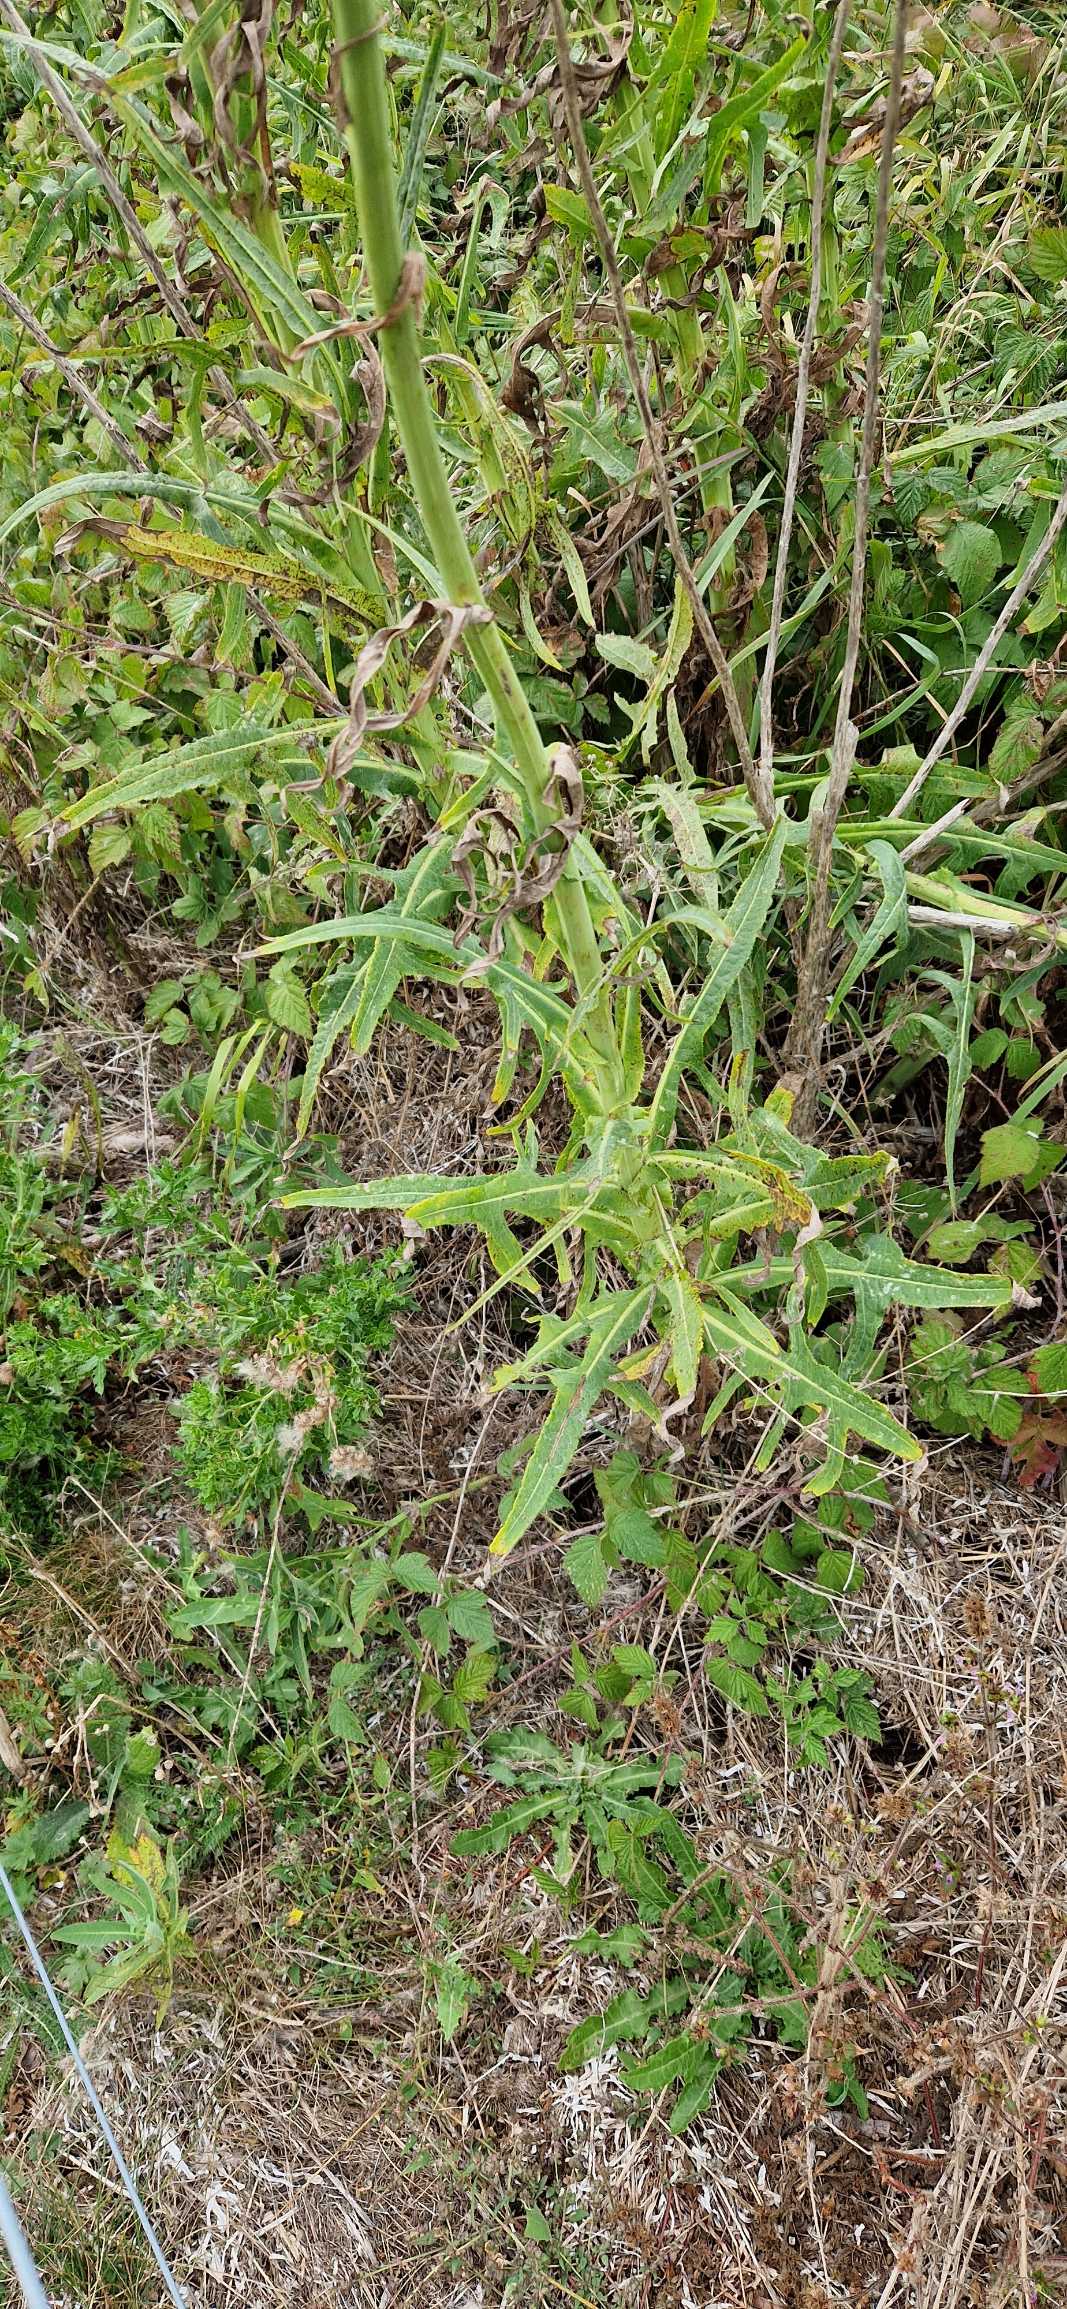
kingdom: Plantae
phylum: Tracheophyta
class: Magnoliopsida
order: Asterales
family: Asteraceae
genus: Sonchus
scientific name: Sonchus palustris
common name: Kær-svinemælk
